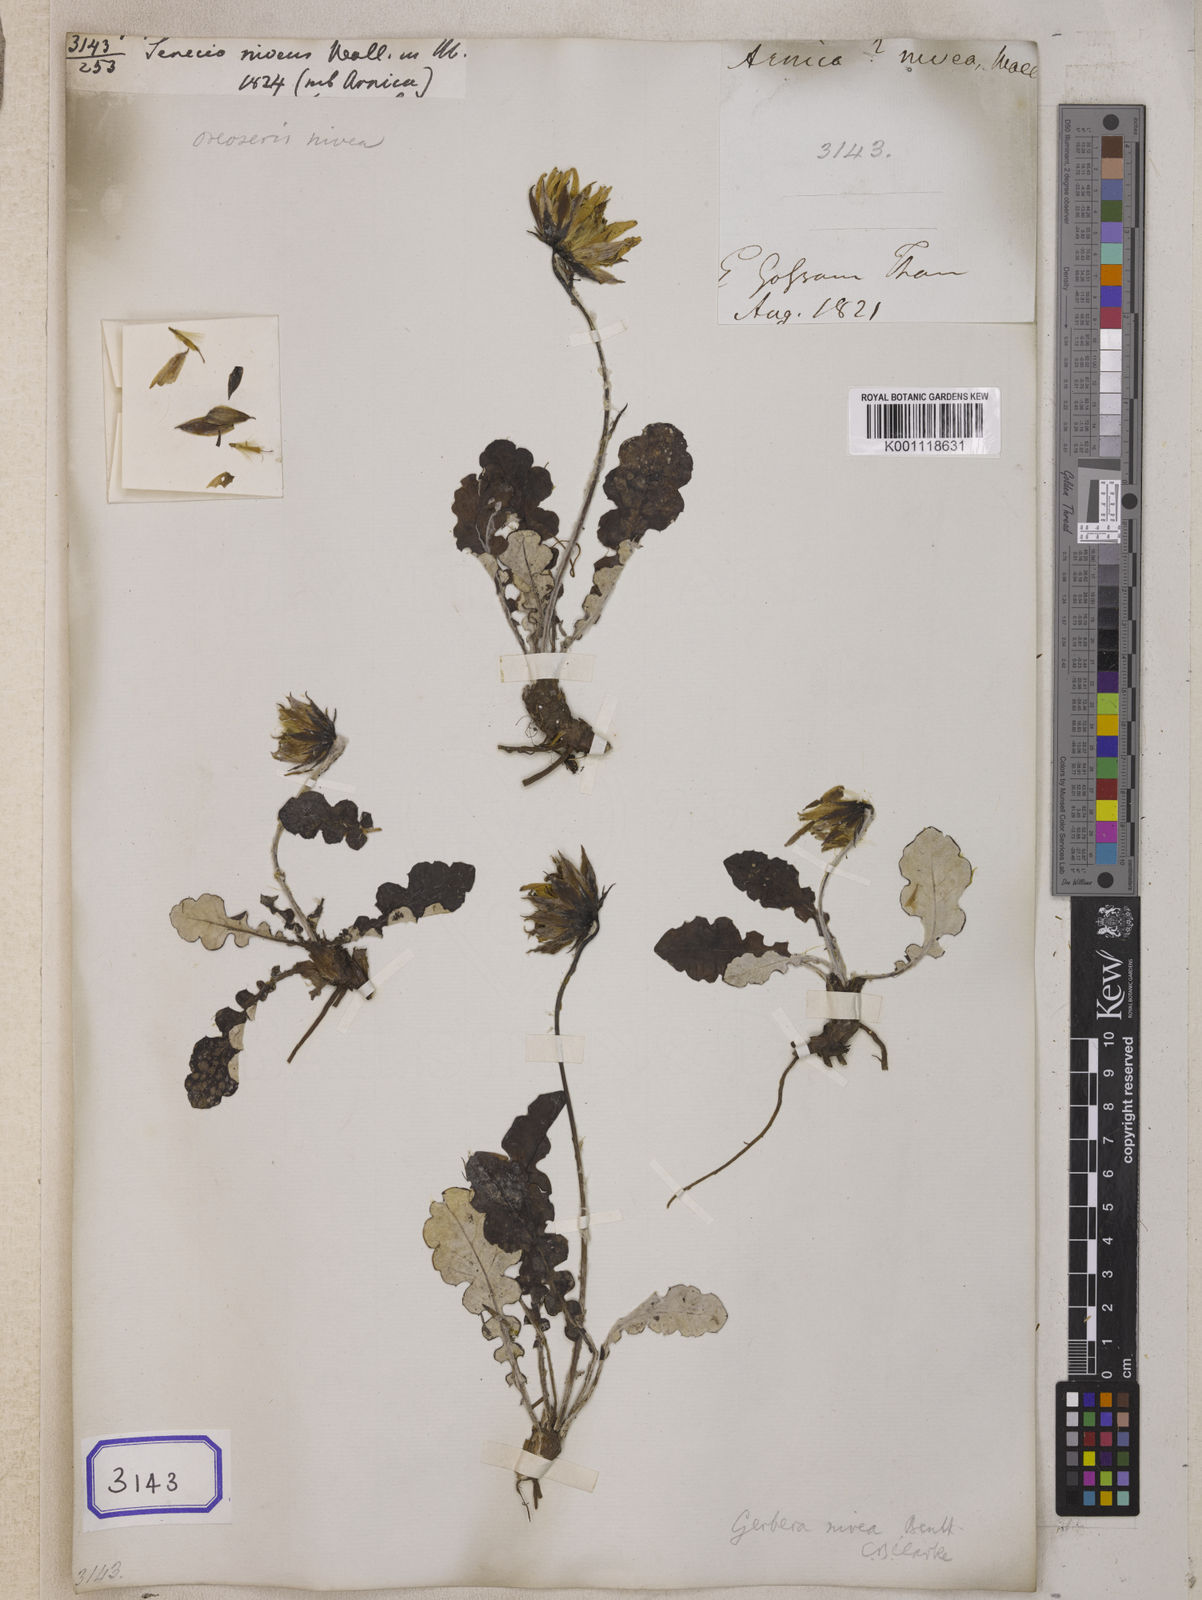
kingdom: Plantae
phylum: Tracheophyta
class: Magnoliopsida
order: Asterales
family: Asteraceae
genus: Gutenbergia
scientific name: Gutenbergia rangei
